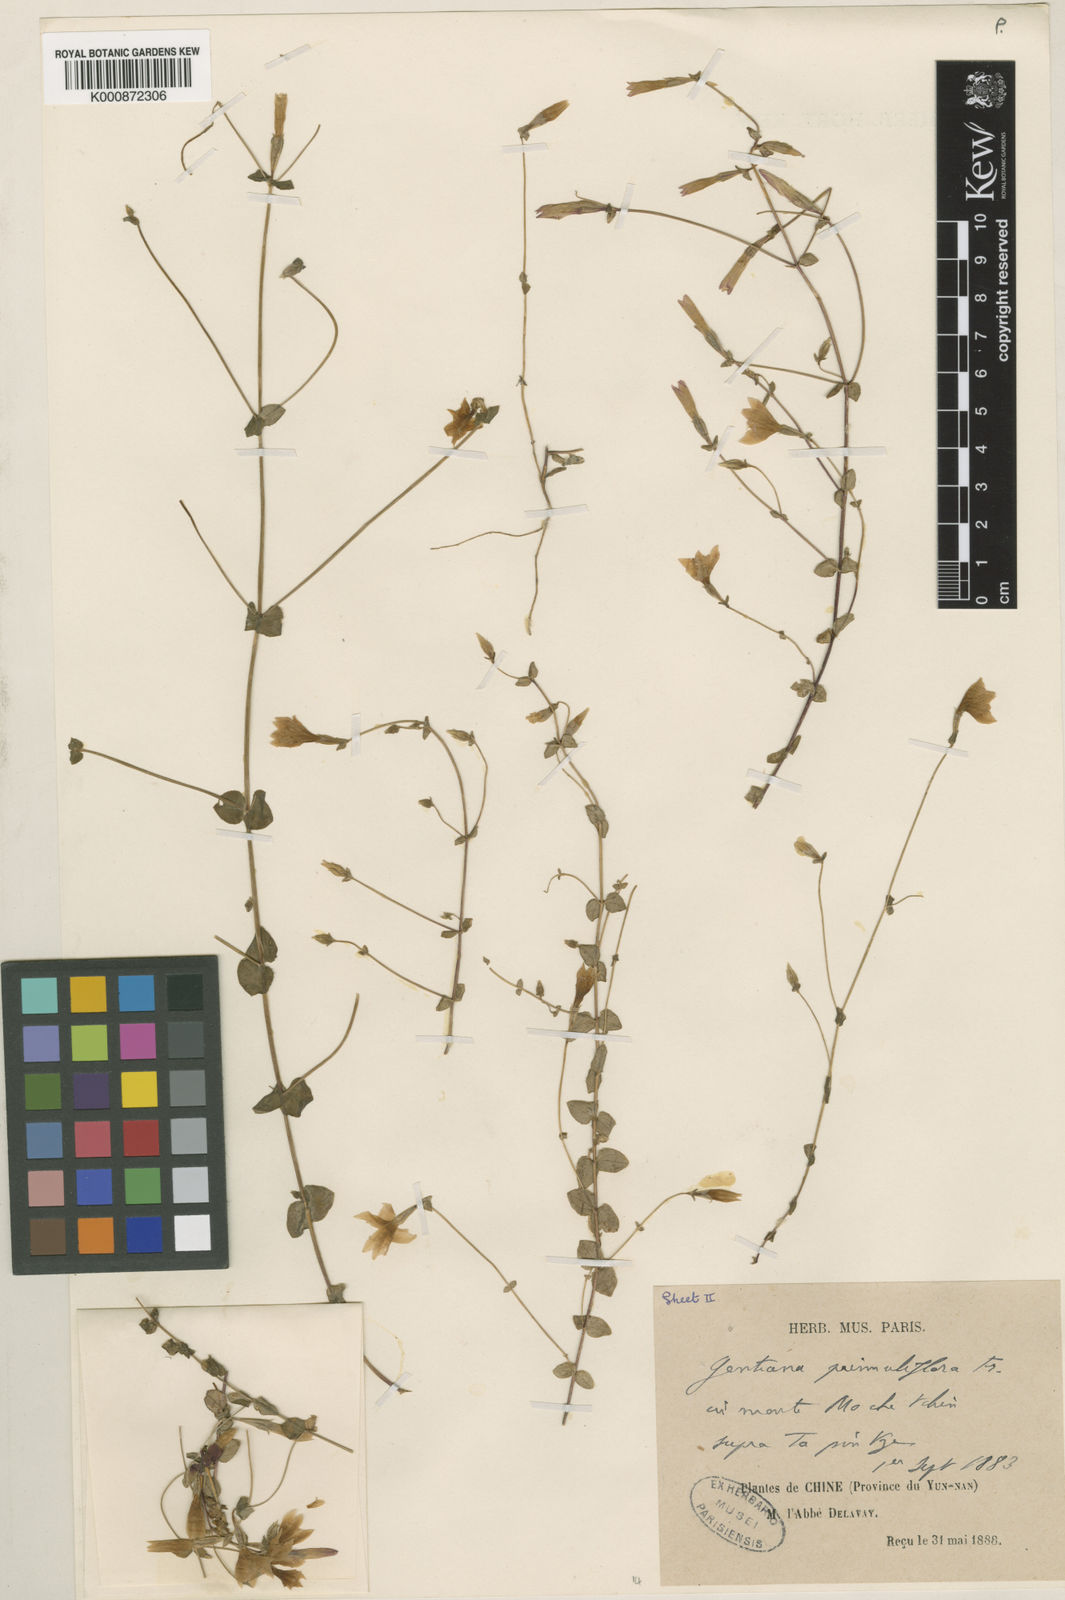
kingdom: Plantae
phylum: Tracheophyta
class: Magnoliopsida
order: Gentianales
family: Gentianaceae
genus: Metagentiana
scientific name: Metagentiana primuliflora
